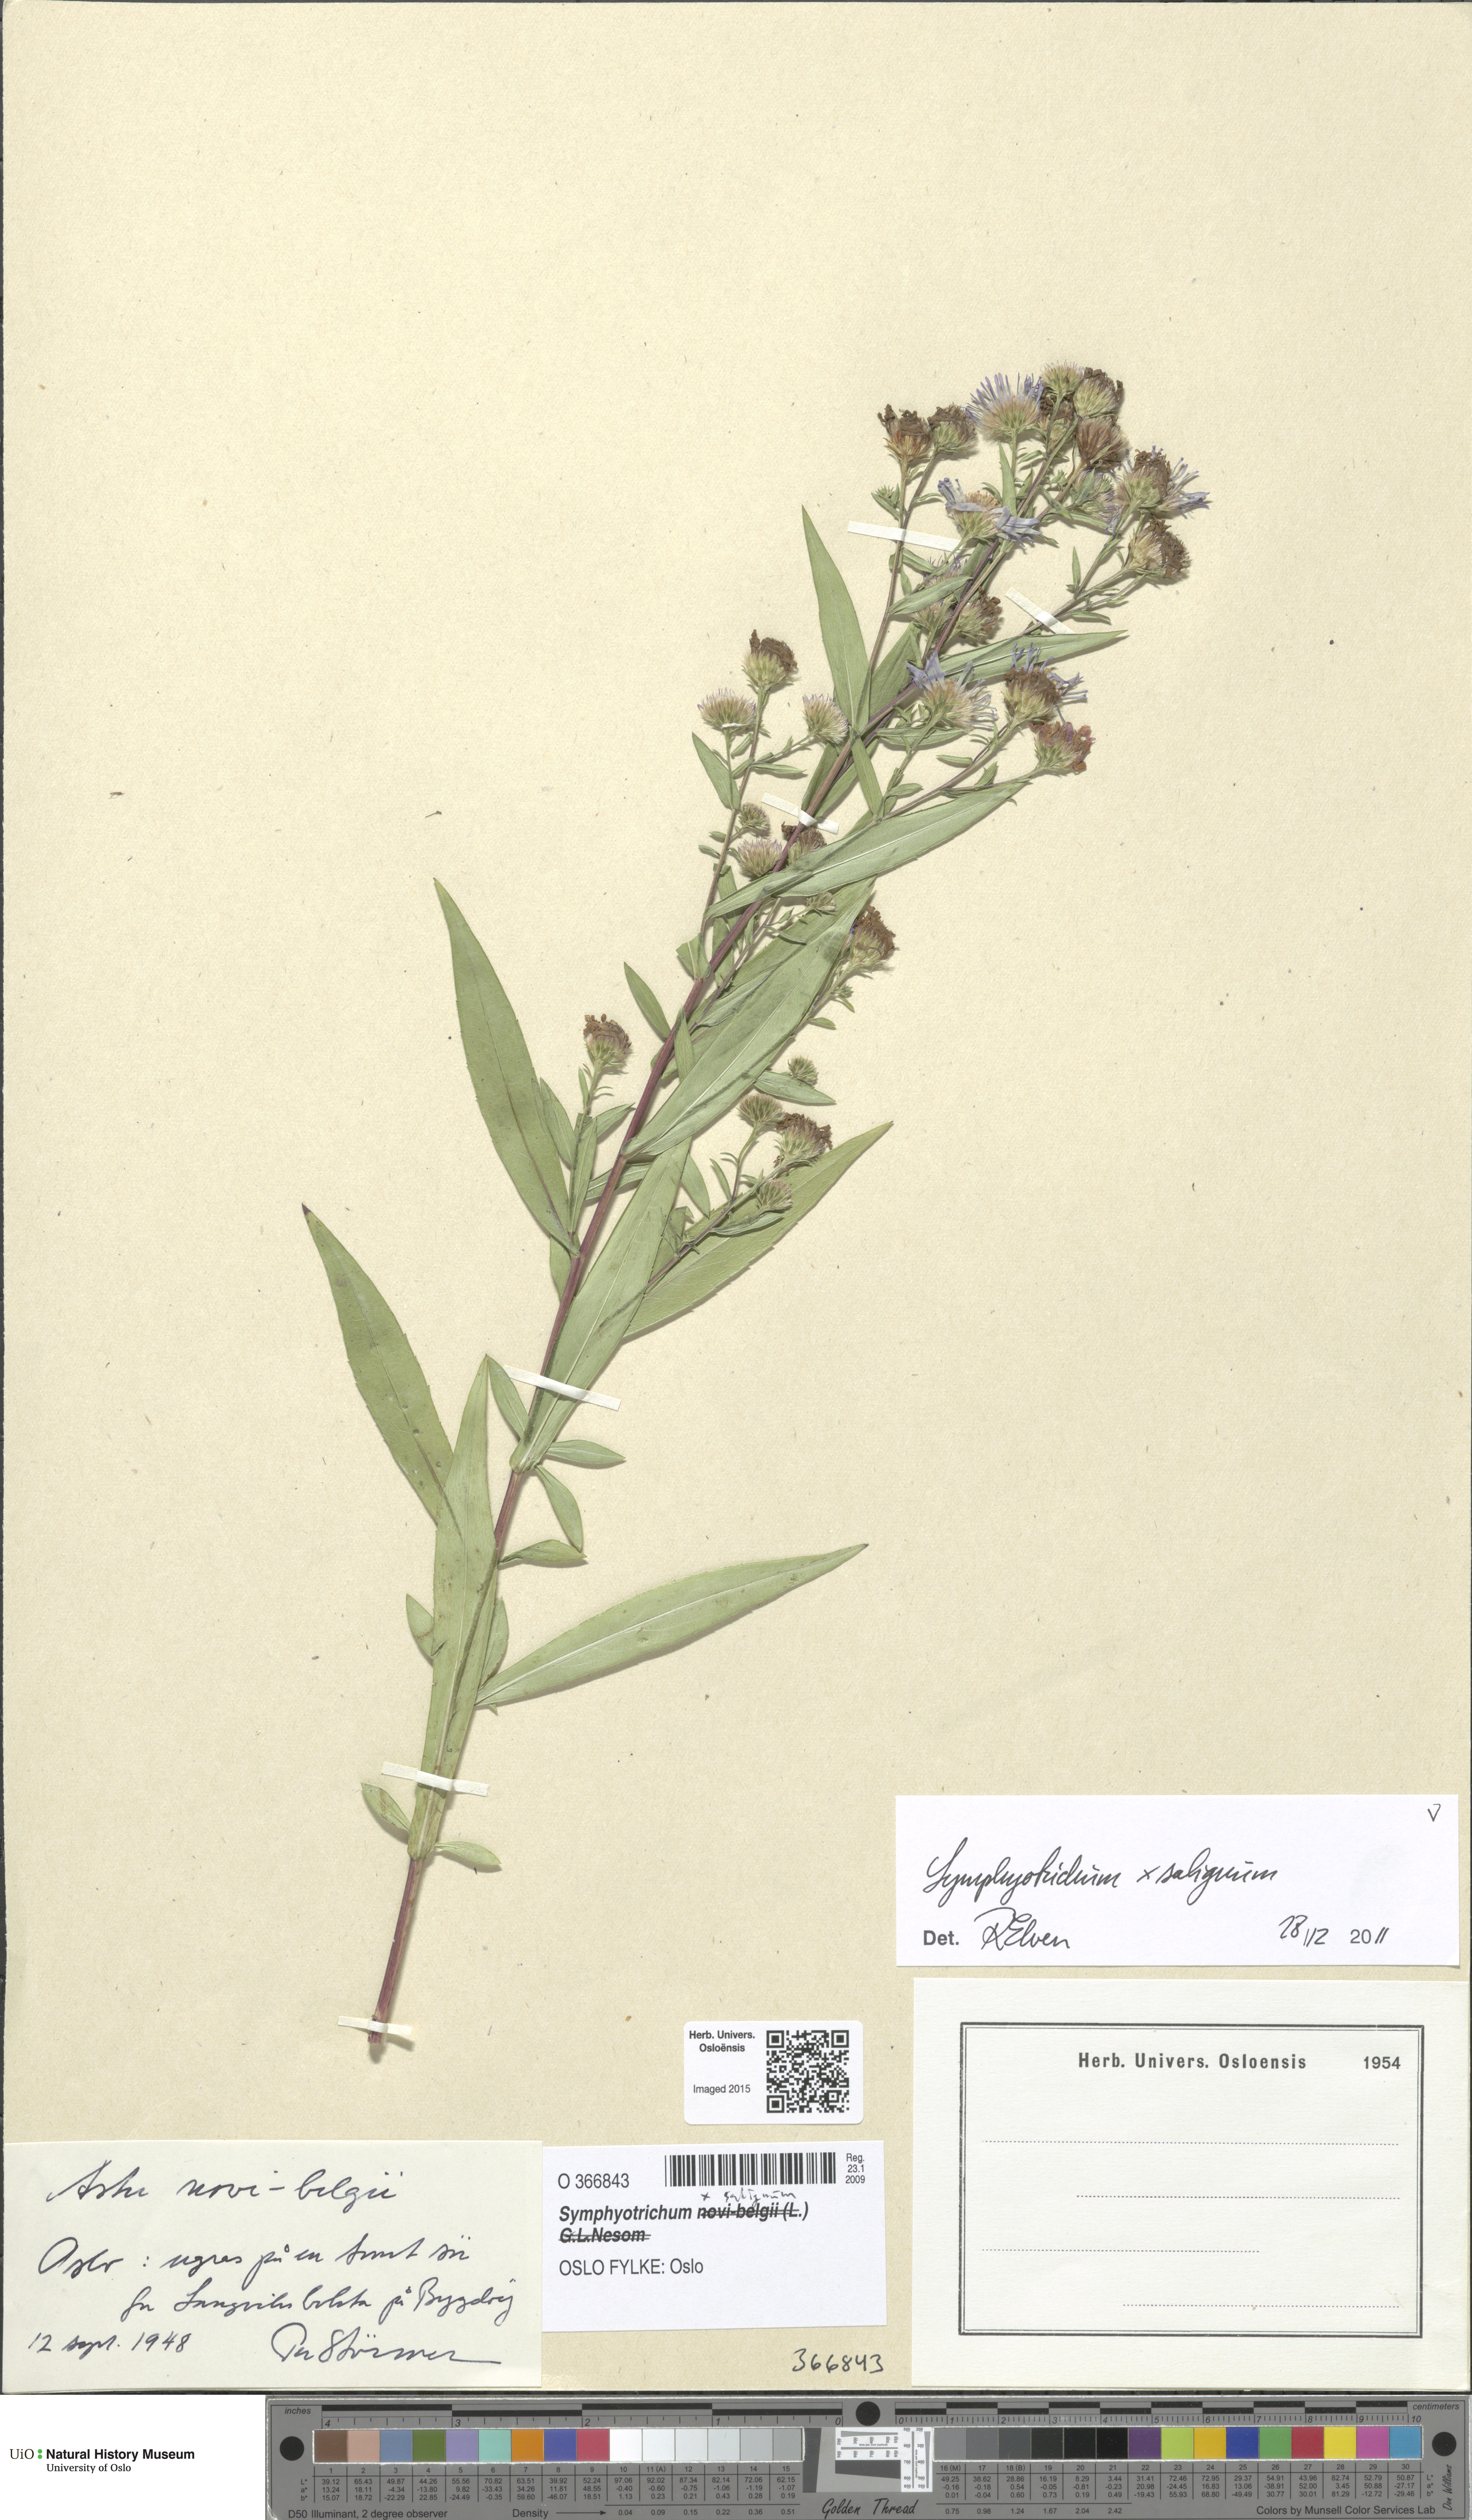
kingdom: Plantae
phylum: Tracheophyta
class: Magnoliopsida
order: Asterales
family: Asteraceae
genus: Symphyotrichum
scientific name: Symphyotrichum versicolor
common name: Late michaelmas daisy
